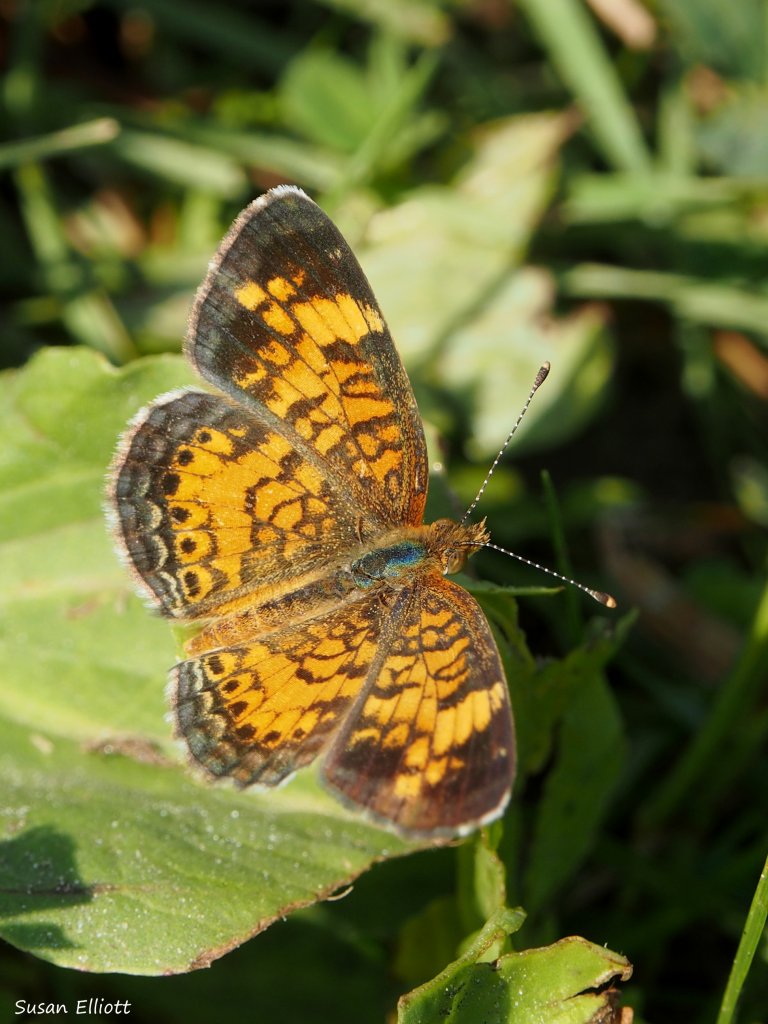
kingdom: Animalia
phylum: Arthropoda
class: Insecta
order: Lepidoptera
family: Nymphalidae
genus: Phyciodes
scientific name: Phyciodes tharos
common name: Northern Crescent
